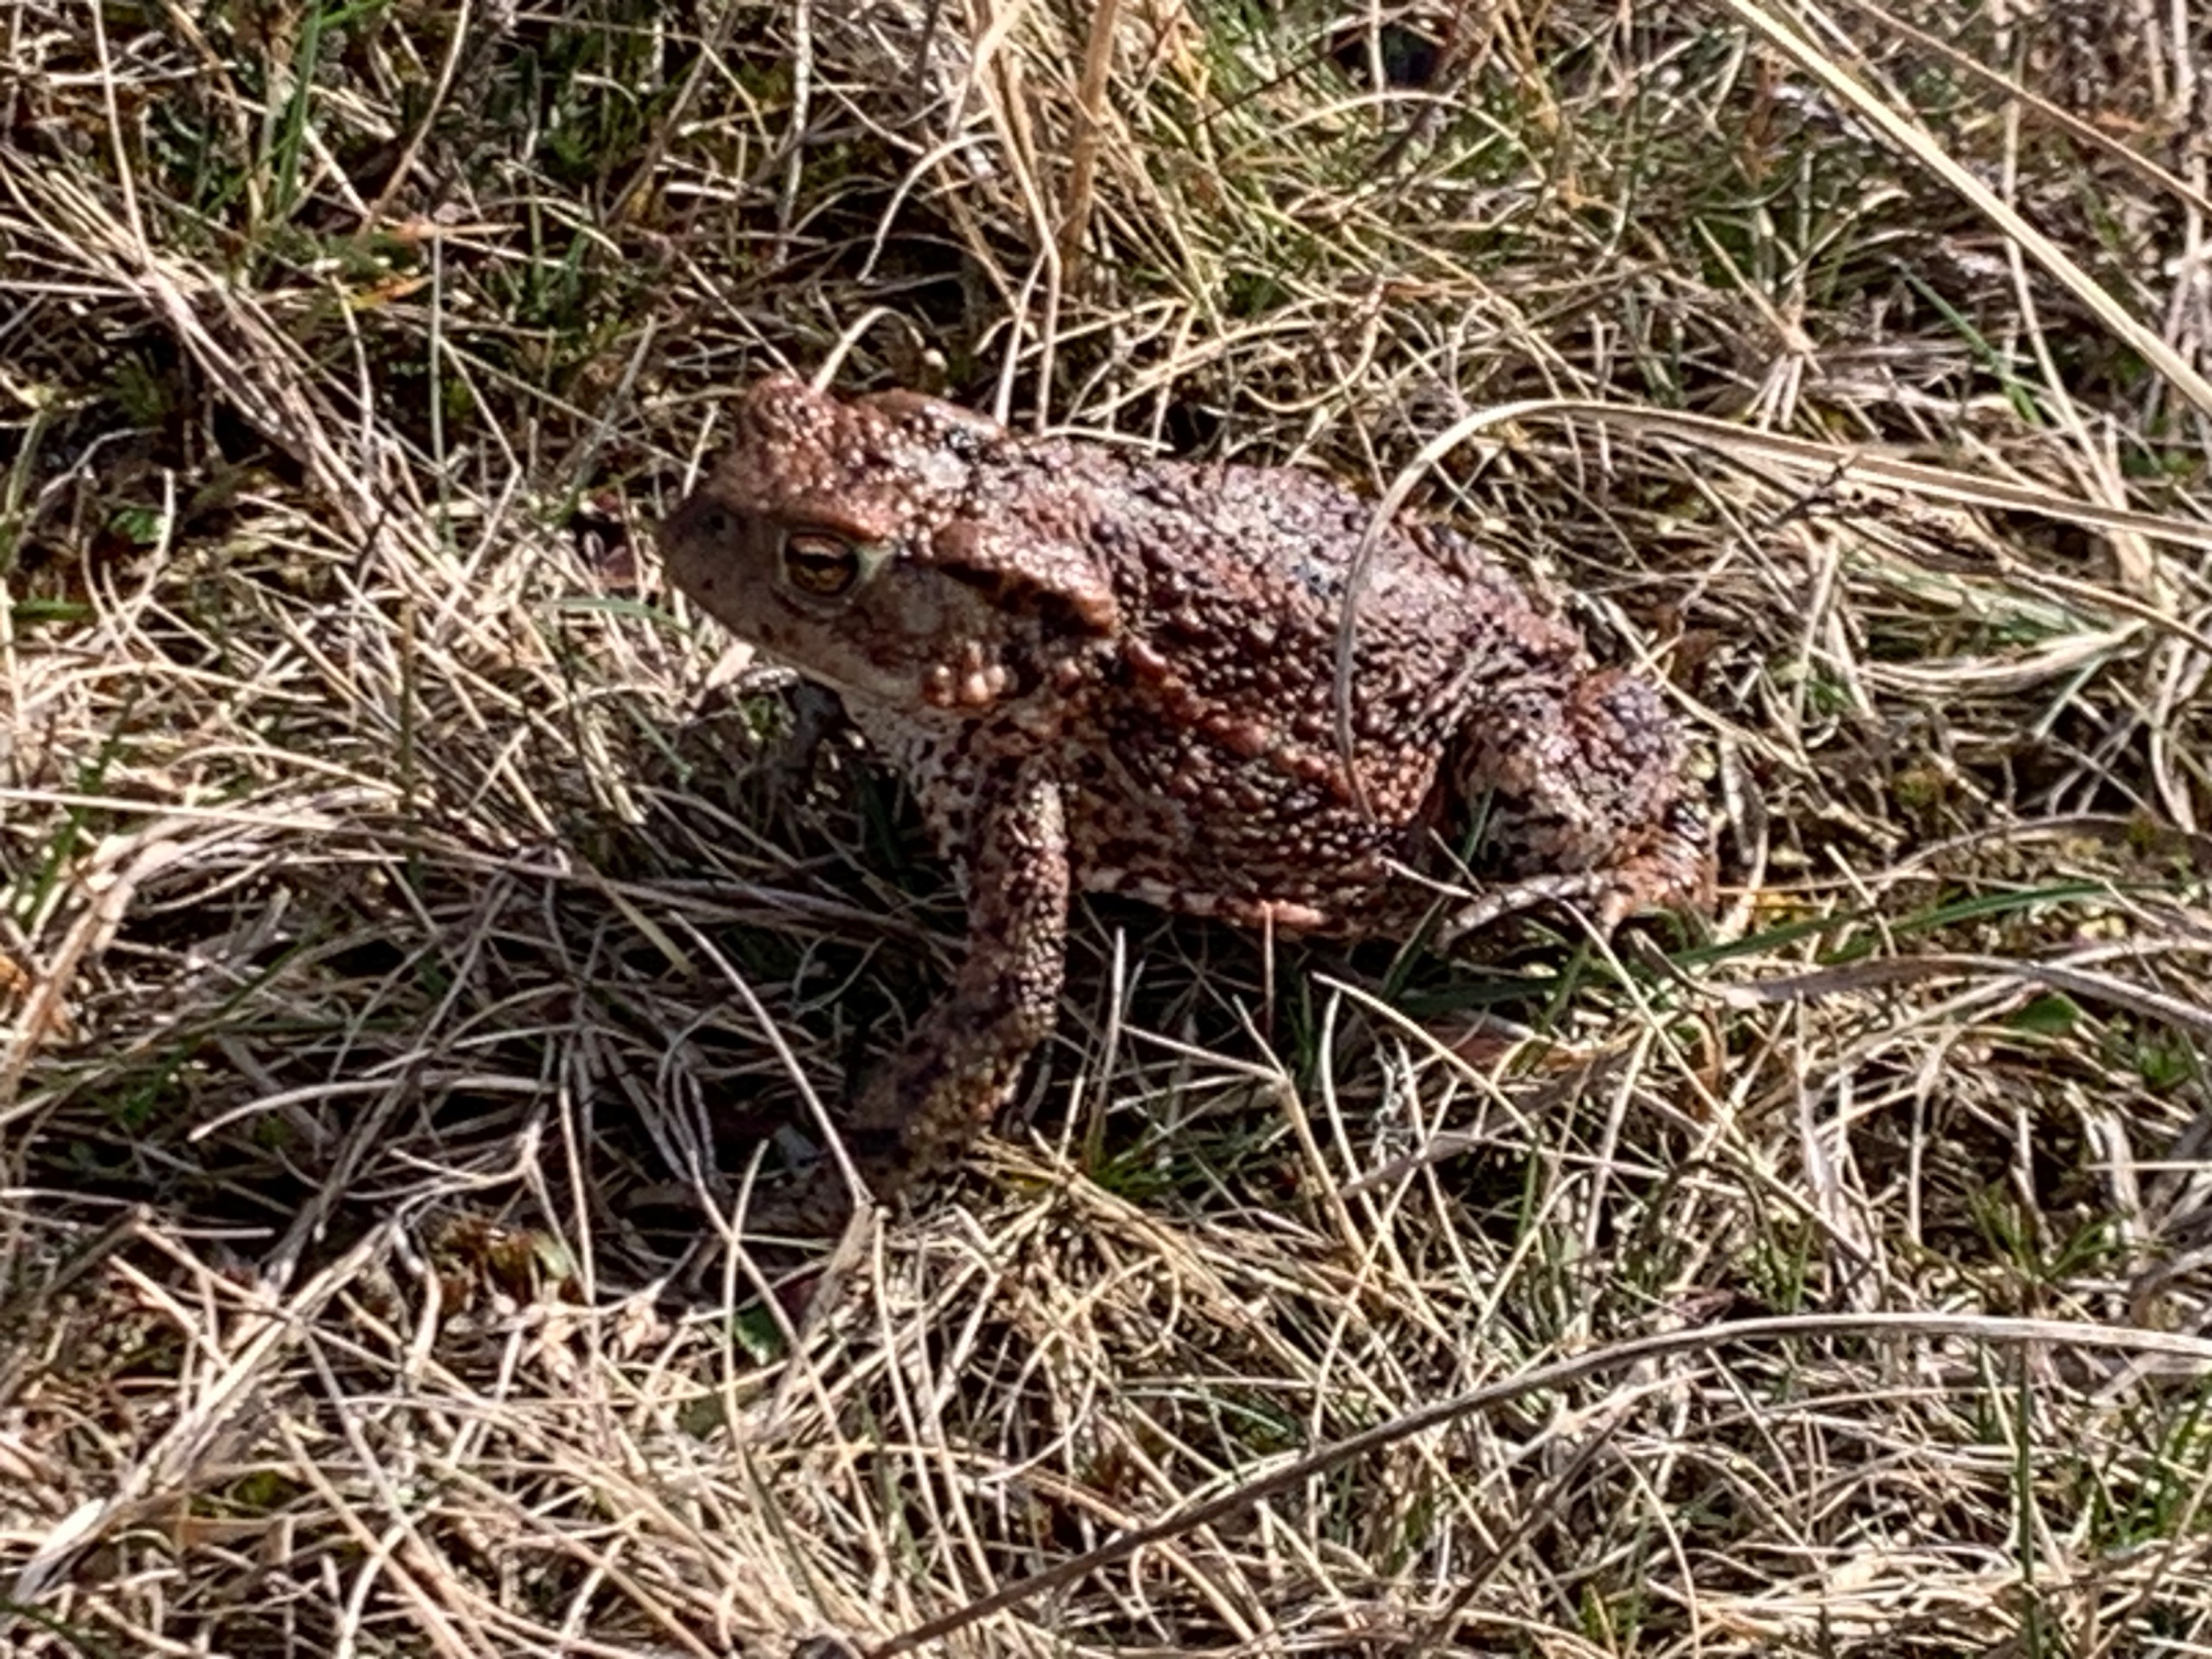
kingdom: Animalia
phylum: Chordata
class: Amphibia
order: Anura
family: Bufonidae
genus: Bufo
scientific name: Bufo bufo
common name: Skrubtudse
